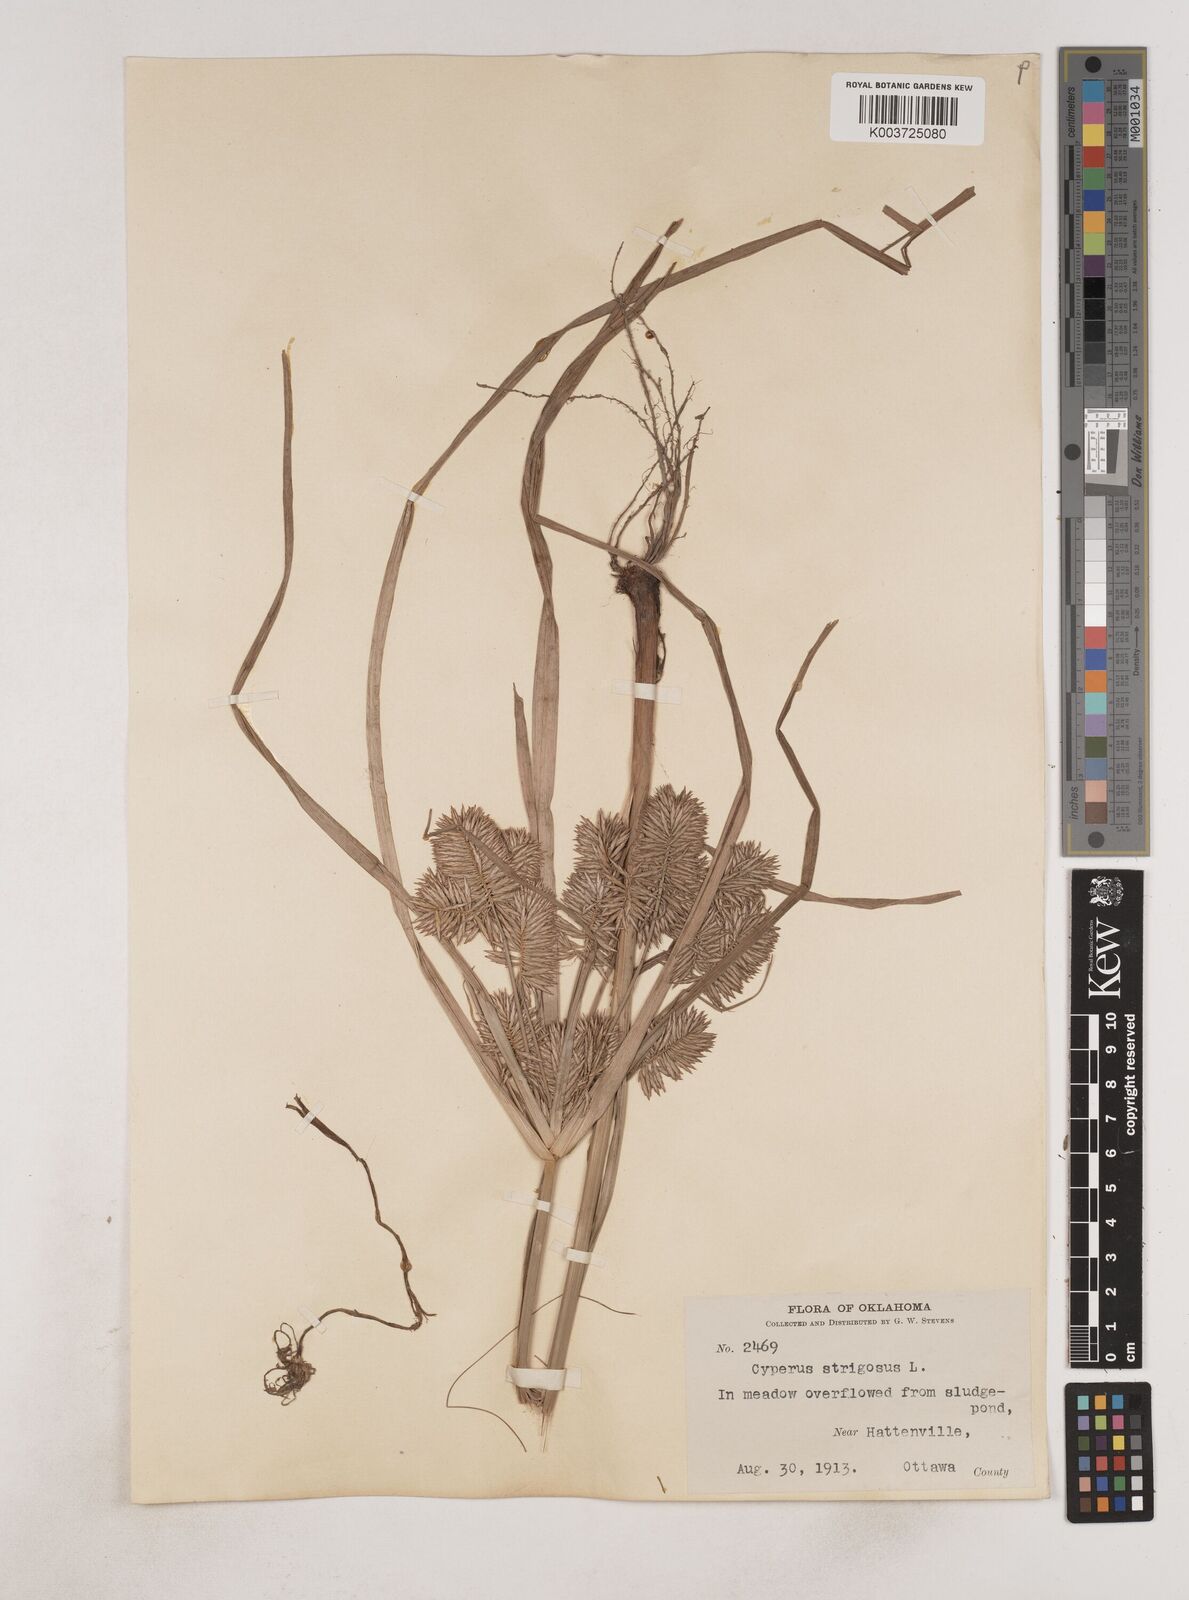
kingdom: Plantae
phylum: Tracheophyta
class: Liliopsida
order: Poales
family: Cyperaceae
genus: Cyperus
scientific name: Cyperus strigosus
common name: False nutsedge
